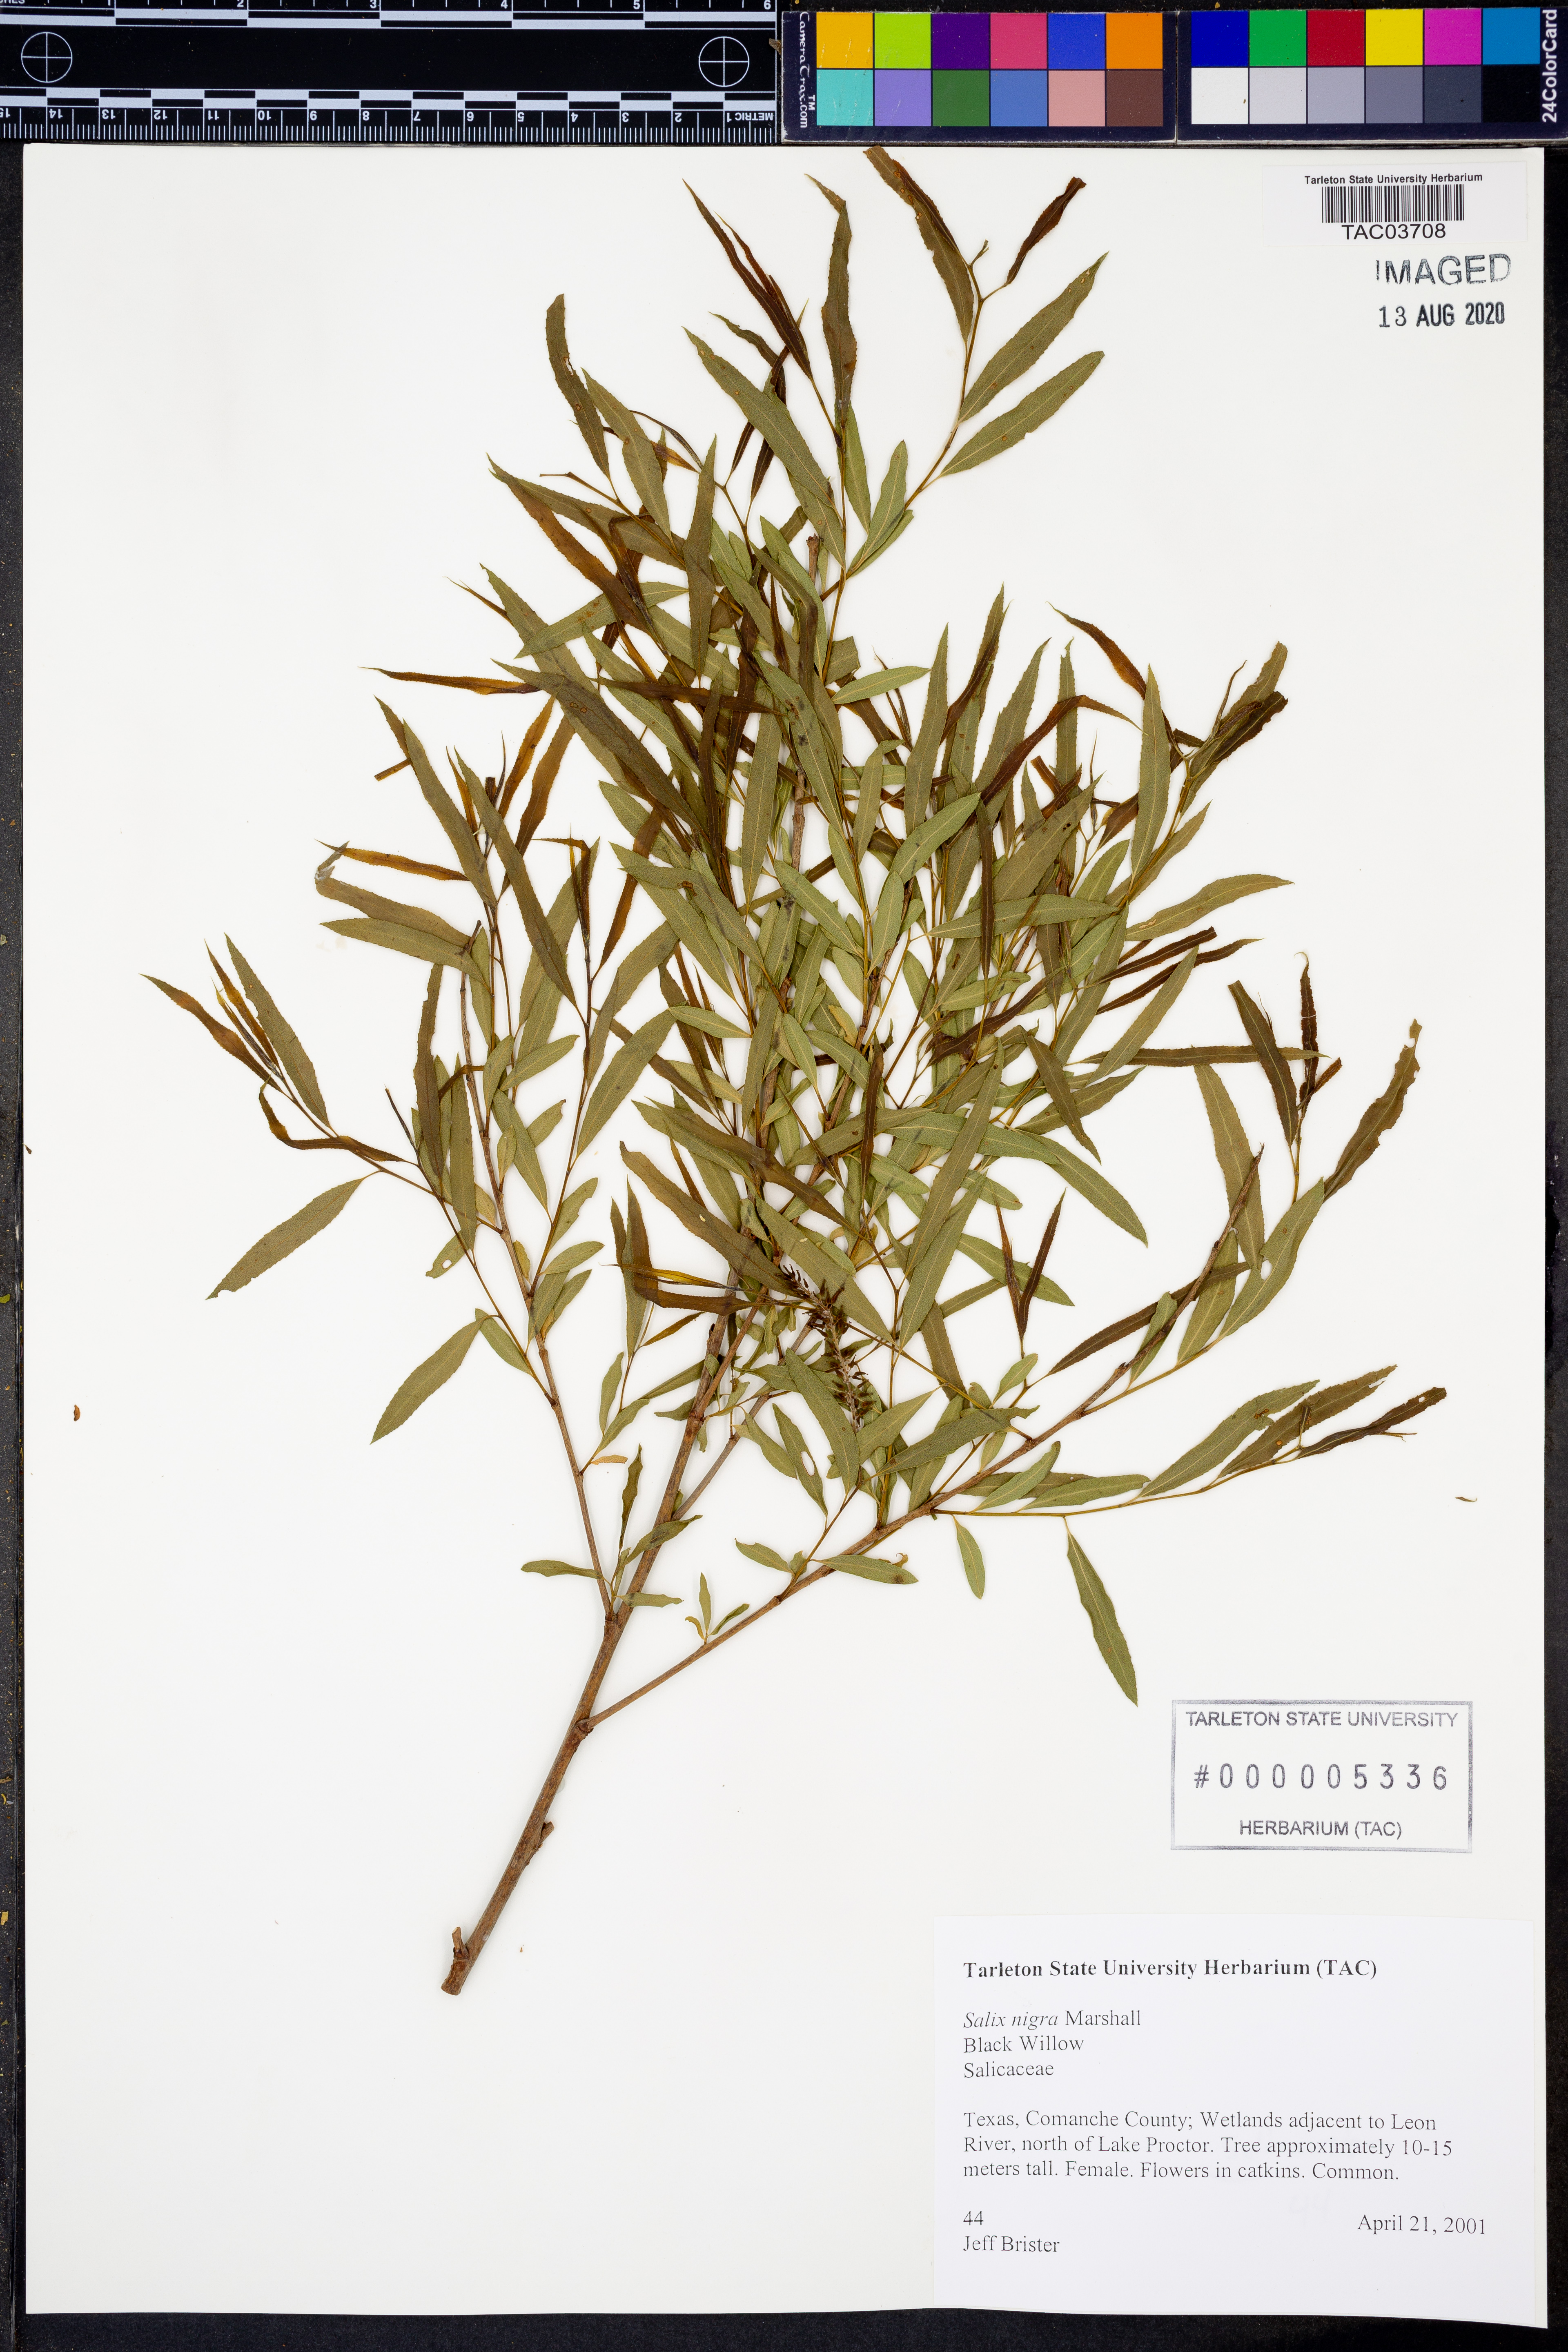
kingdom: Plantae
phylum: Tracheophyta
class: Magnoliopsida
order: Malpighiales
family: Salicaceae
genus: Salix
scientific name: Salix nigra
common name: Black willow
